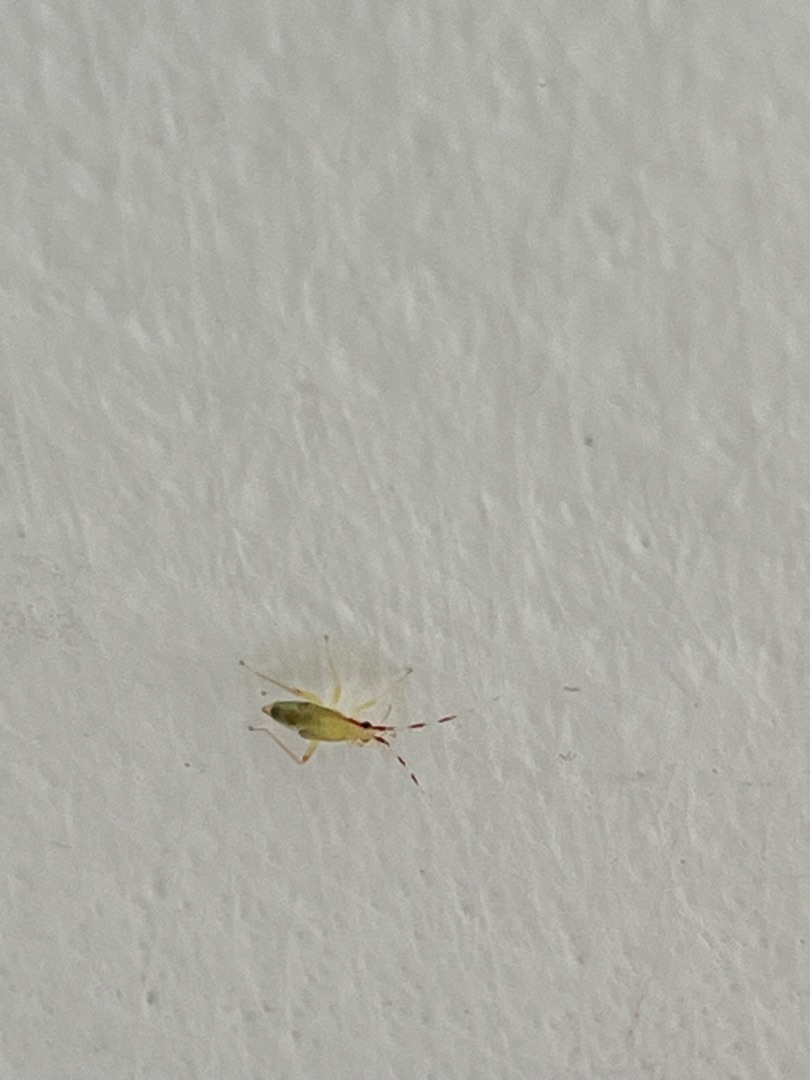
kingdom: Animalia
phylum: Arthropoda
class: Insecta
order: Hemiptera
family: Miridae
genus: Campyloneura
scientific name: Campyloneura virgula
